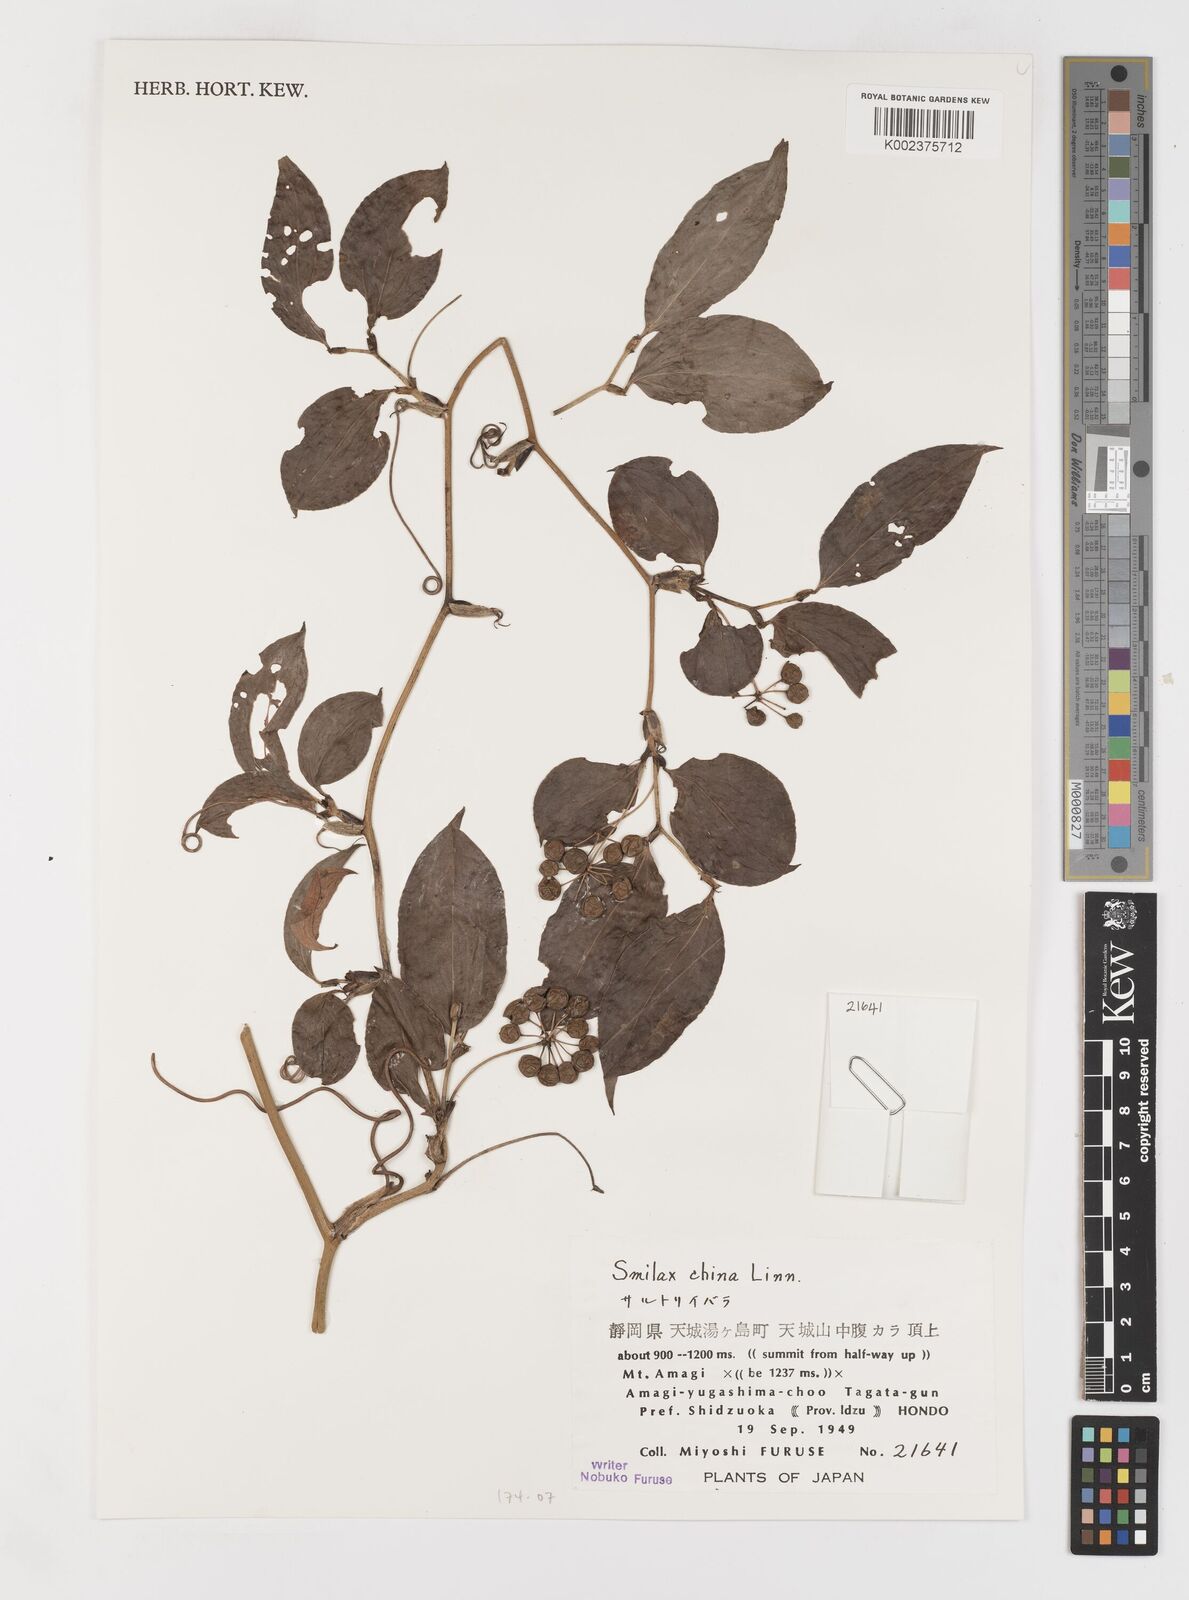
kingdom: Plantae
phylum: Tracheophyta
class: Liliopsida
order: Liliales
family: Smilacaceae
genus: Smilax
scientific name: Smilax china
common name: Chinaroot
